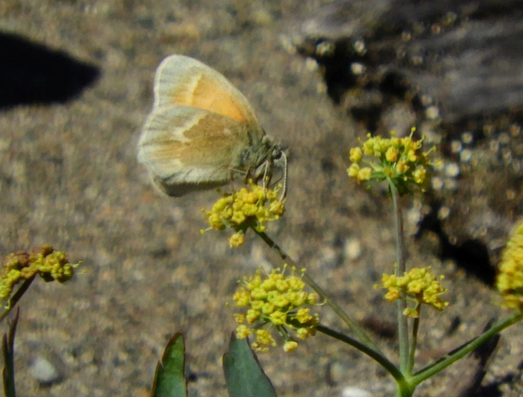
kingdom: Animalia
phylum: Arthropoda
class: Insecta
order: Lepidoptera
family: Nymphalidae
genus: Coenonympha
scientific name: Coenonympha tullia
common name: Large Heath
